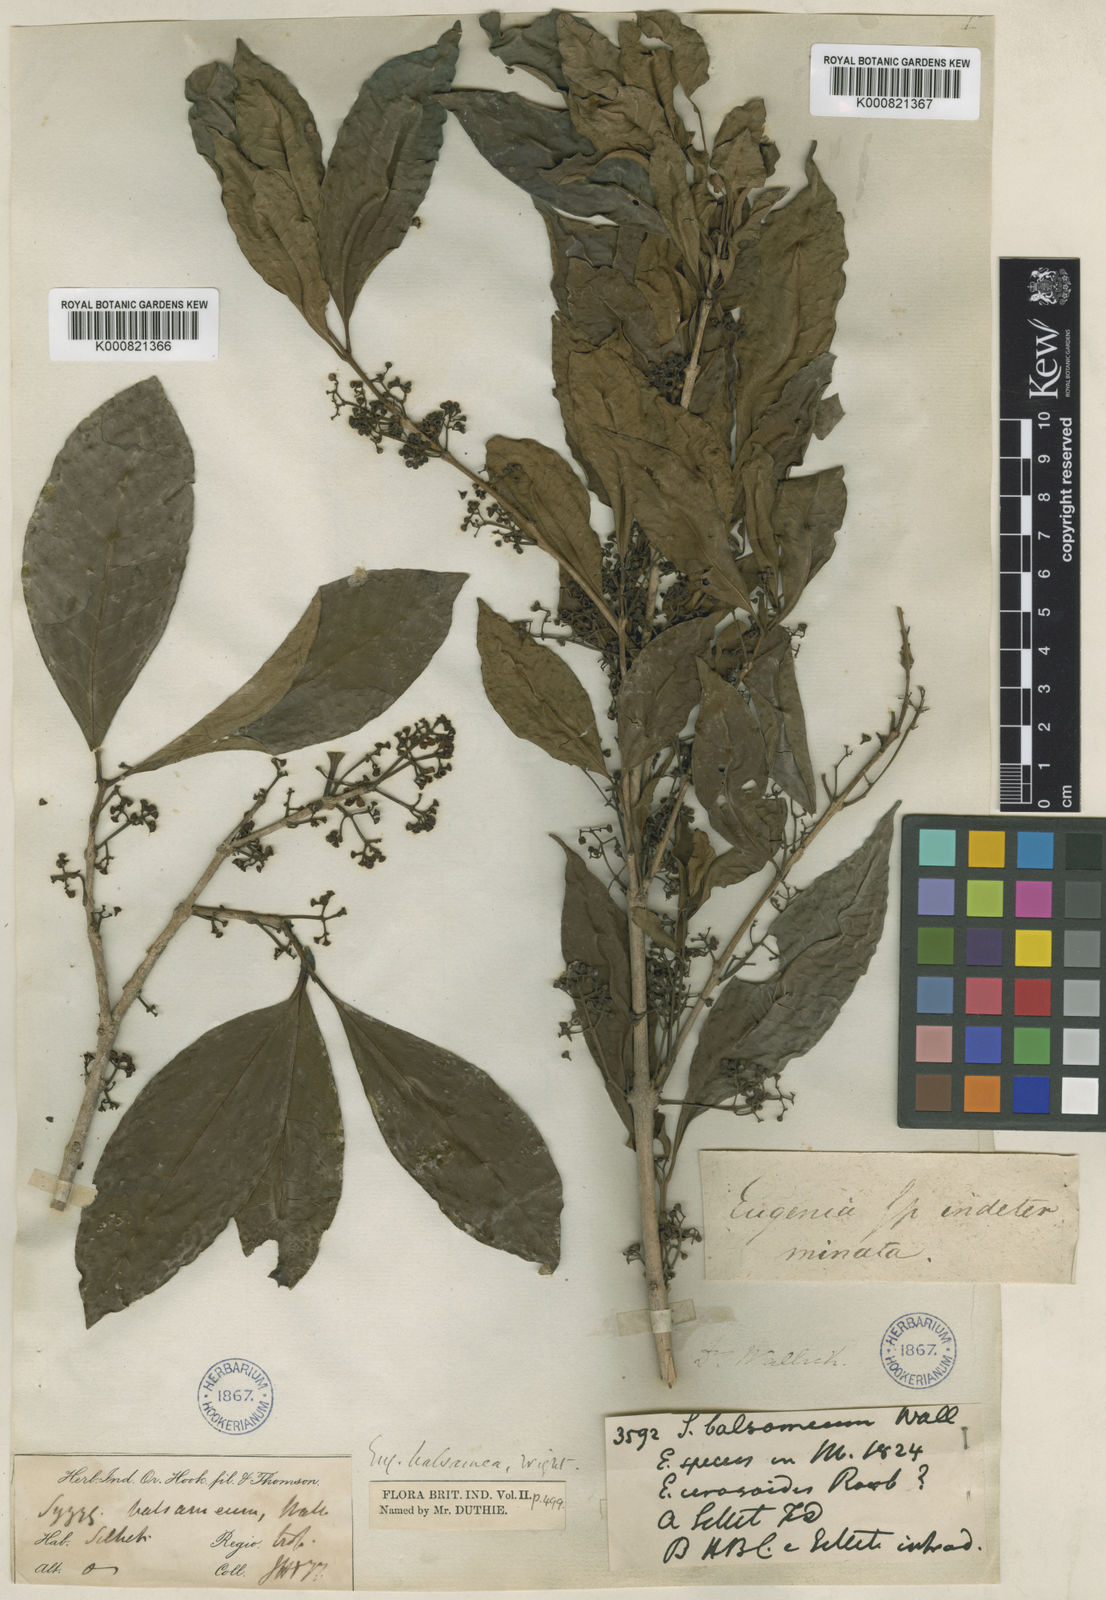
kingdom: Plantae
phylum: Tracheophyta
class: Magnoliopsida
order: Myrtales
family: Myrtaceae
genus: Syzygium
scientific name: Syzygium balsameum
